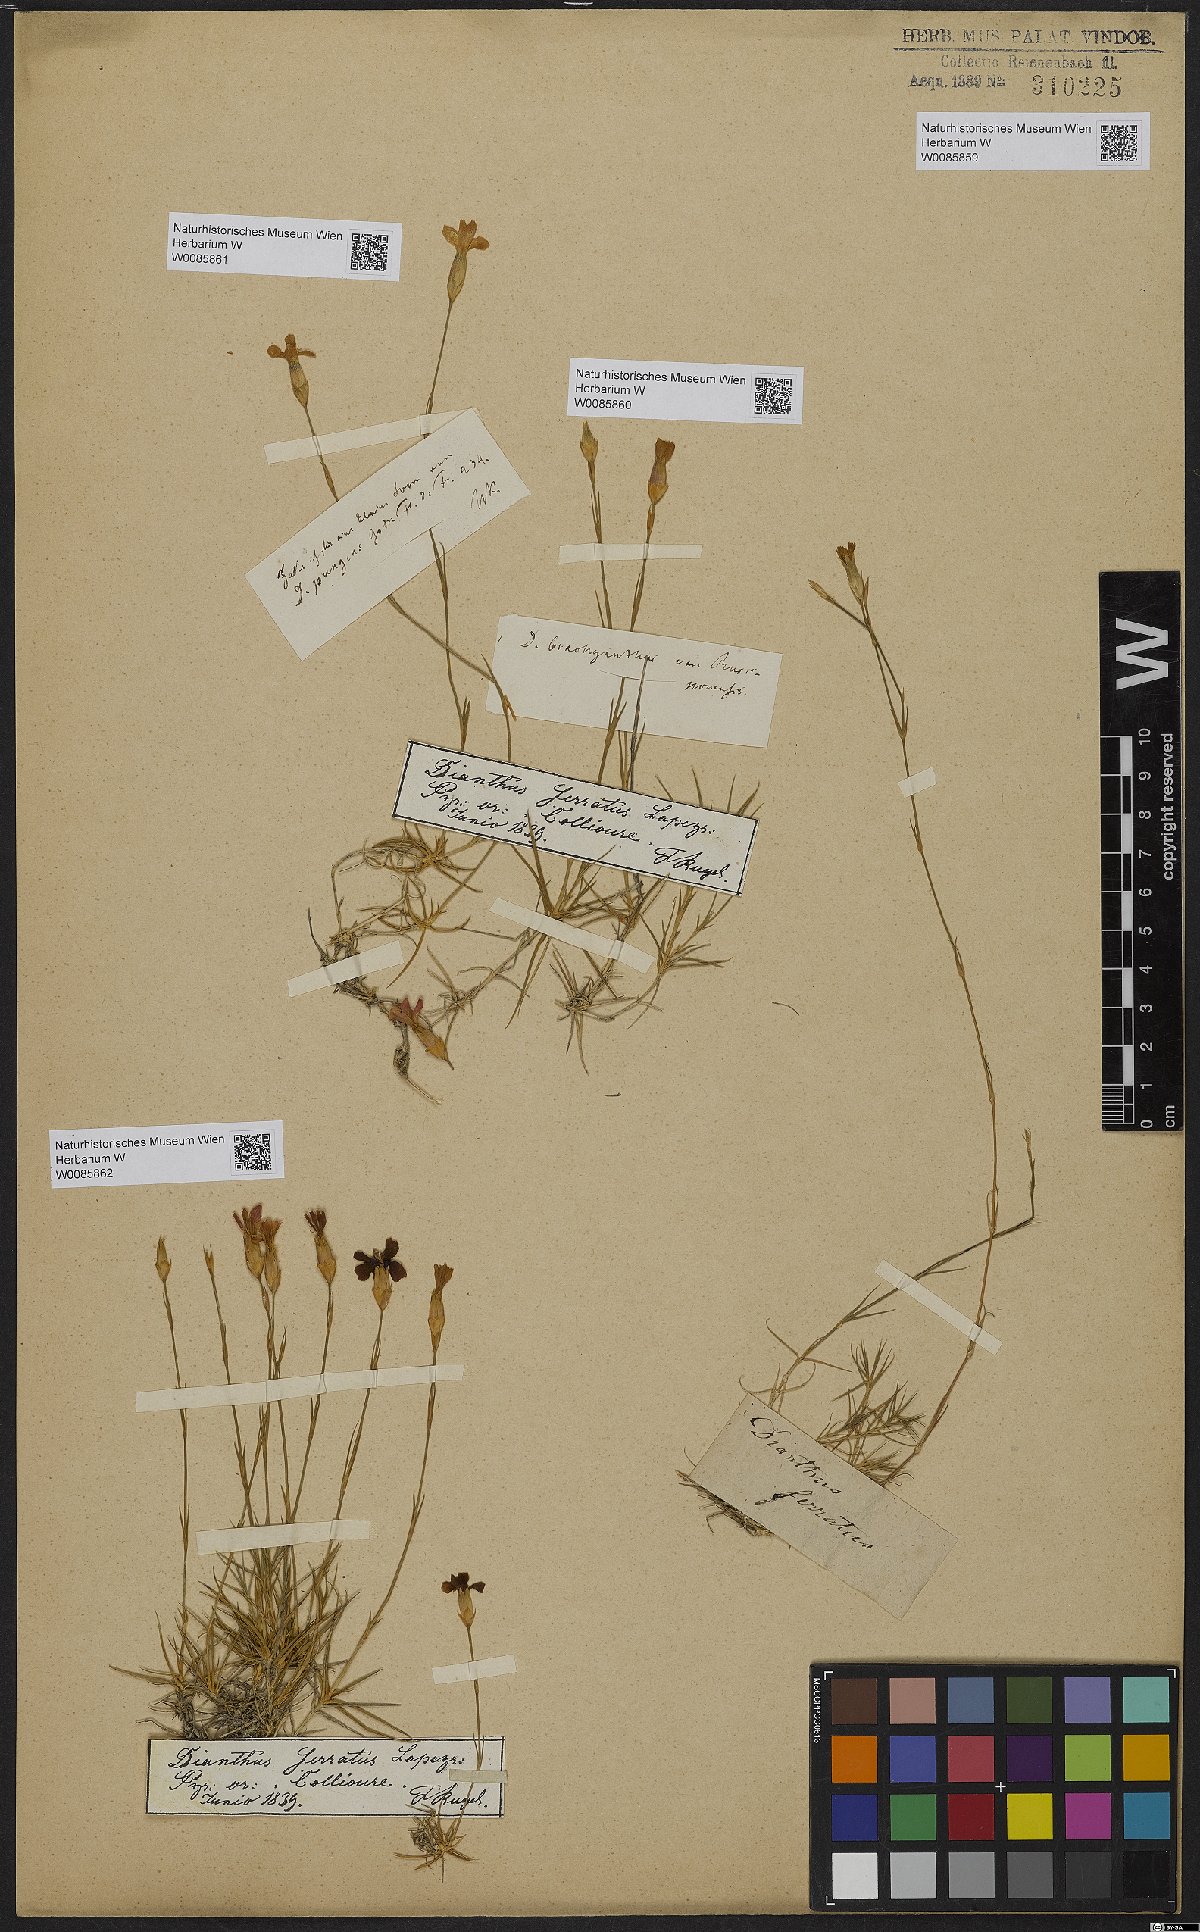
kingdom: Plantae
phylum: Tracheophyta
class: Magnoliopsida
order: Caryophyllales
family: Caryophyllaceae
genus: Dianthus
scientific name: Dianthus pungens
